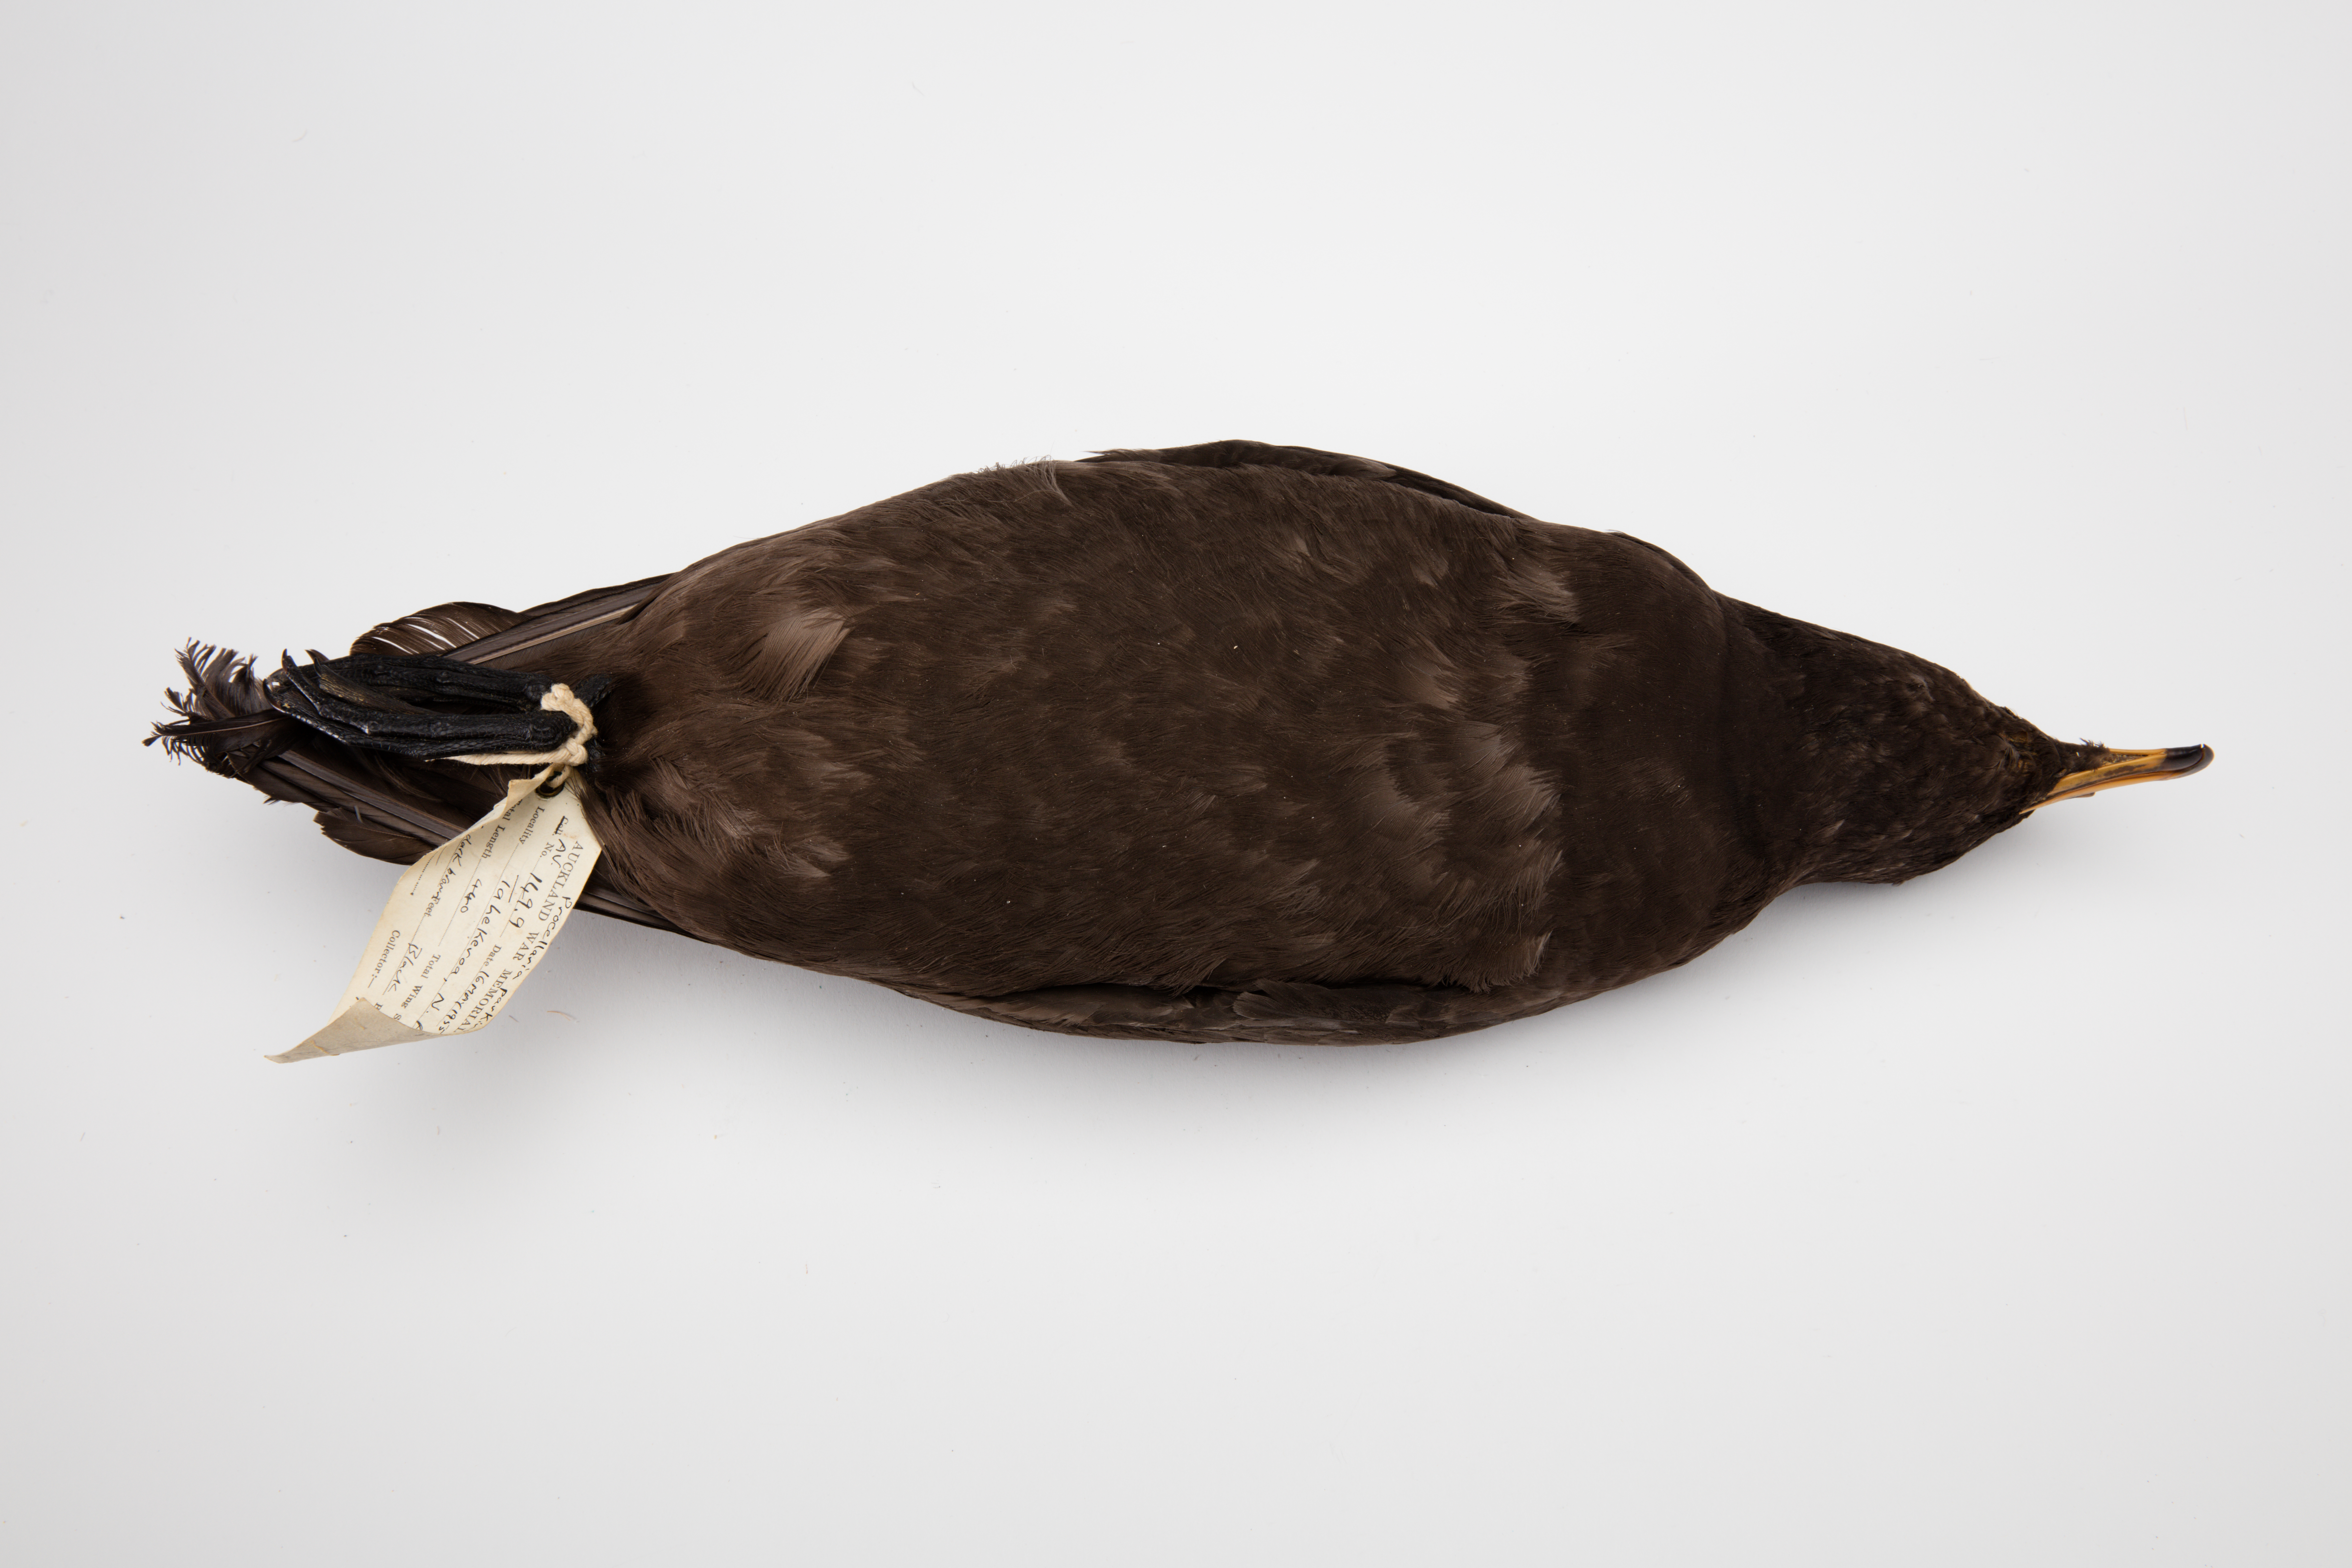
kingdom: Animalia
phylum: Chordata
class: Aves
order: Procellariiformes
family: Procellariidae
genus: Procellaria
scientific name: Procellaria parkinsoni
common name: Black petrel
